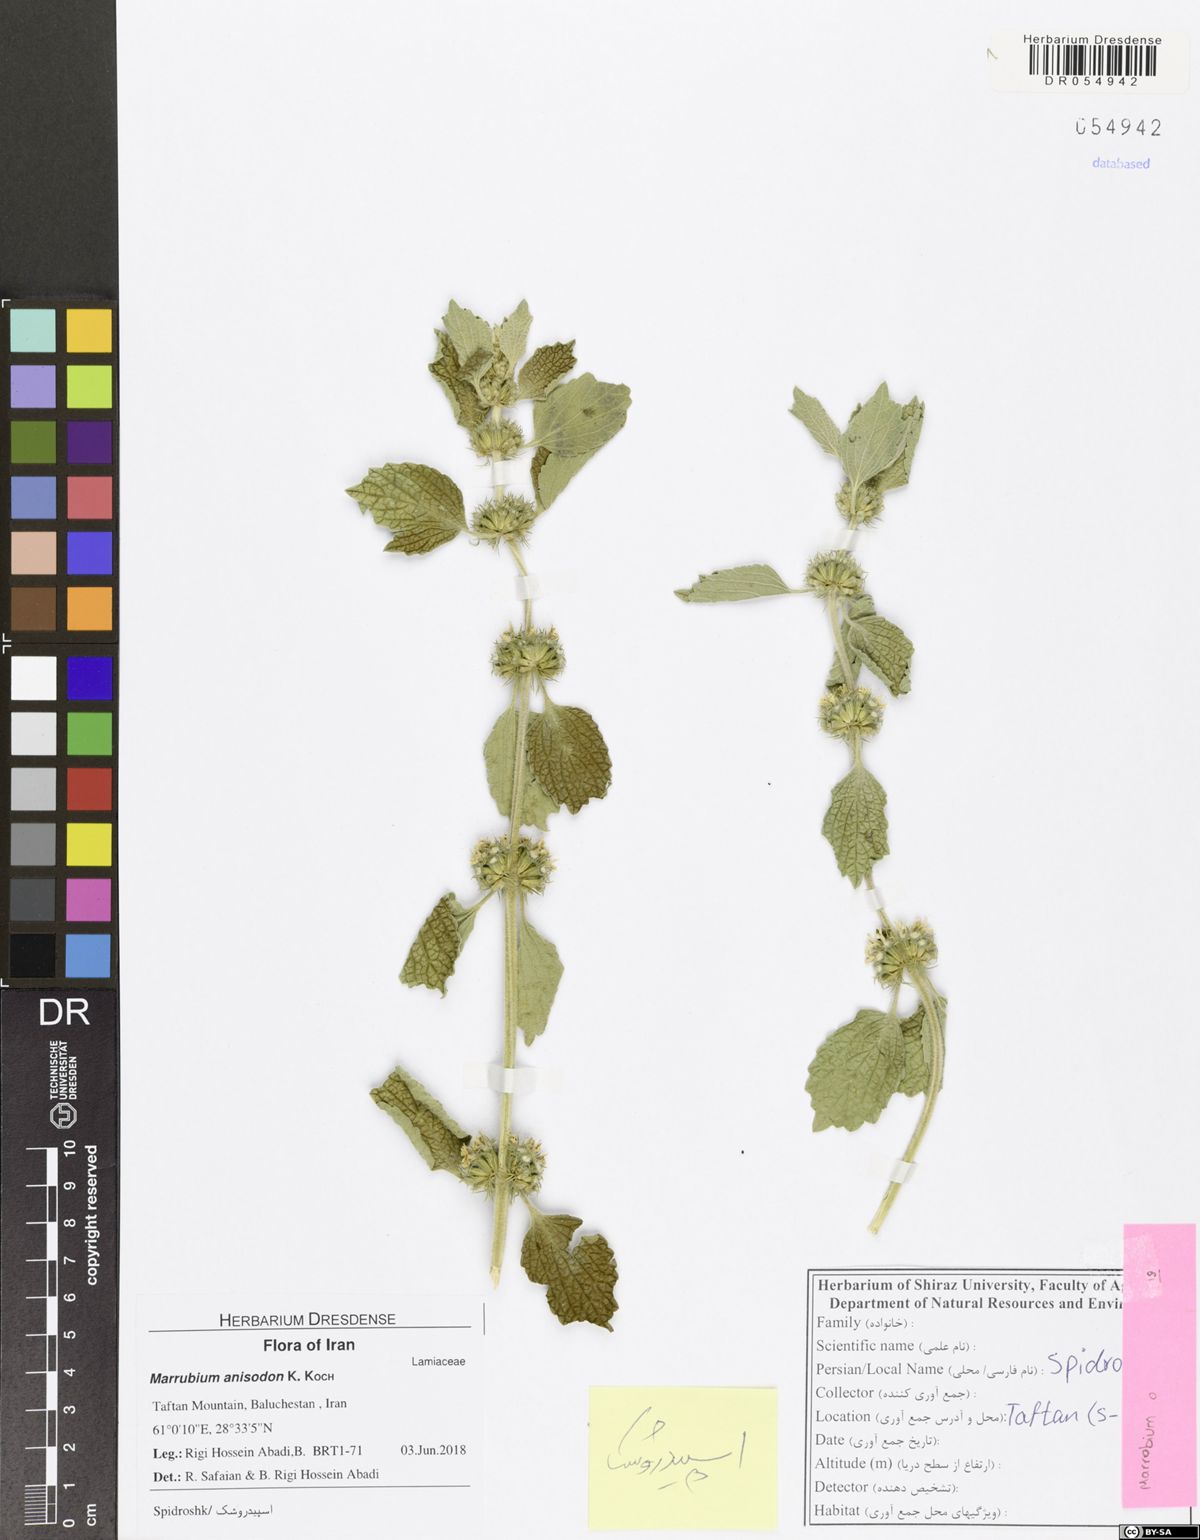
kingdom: Plantae
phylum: Tracheophyta
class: Magnoliopsida
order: Lamiales
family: Lamiaceae
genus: Marrubium
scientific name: Marrubium anisodon
